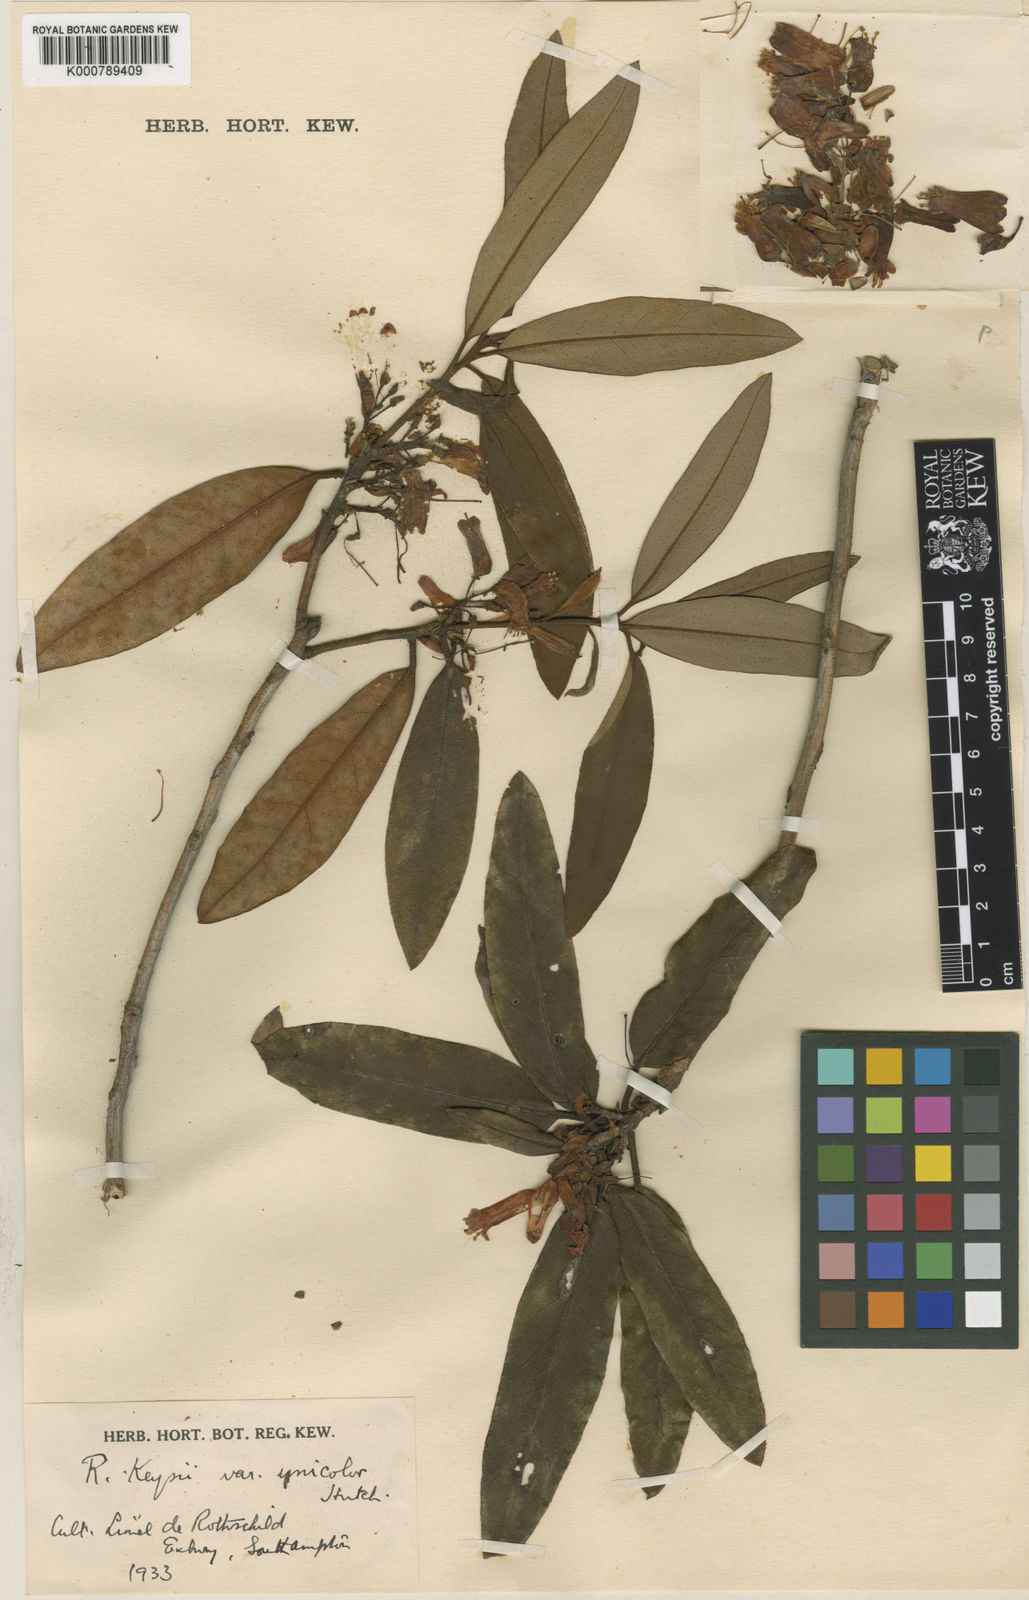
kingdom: Plantae
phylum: Tracheophyta
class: Magnoliopsida
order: Ericales
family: Ericaceae
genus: Rhododendron
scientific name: Rhododendron
